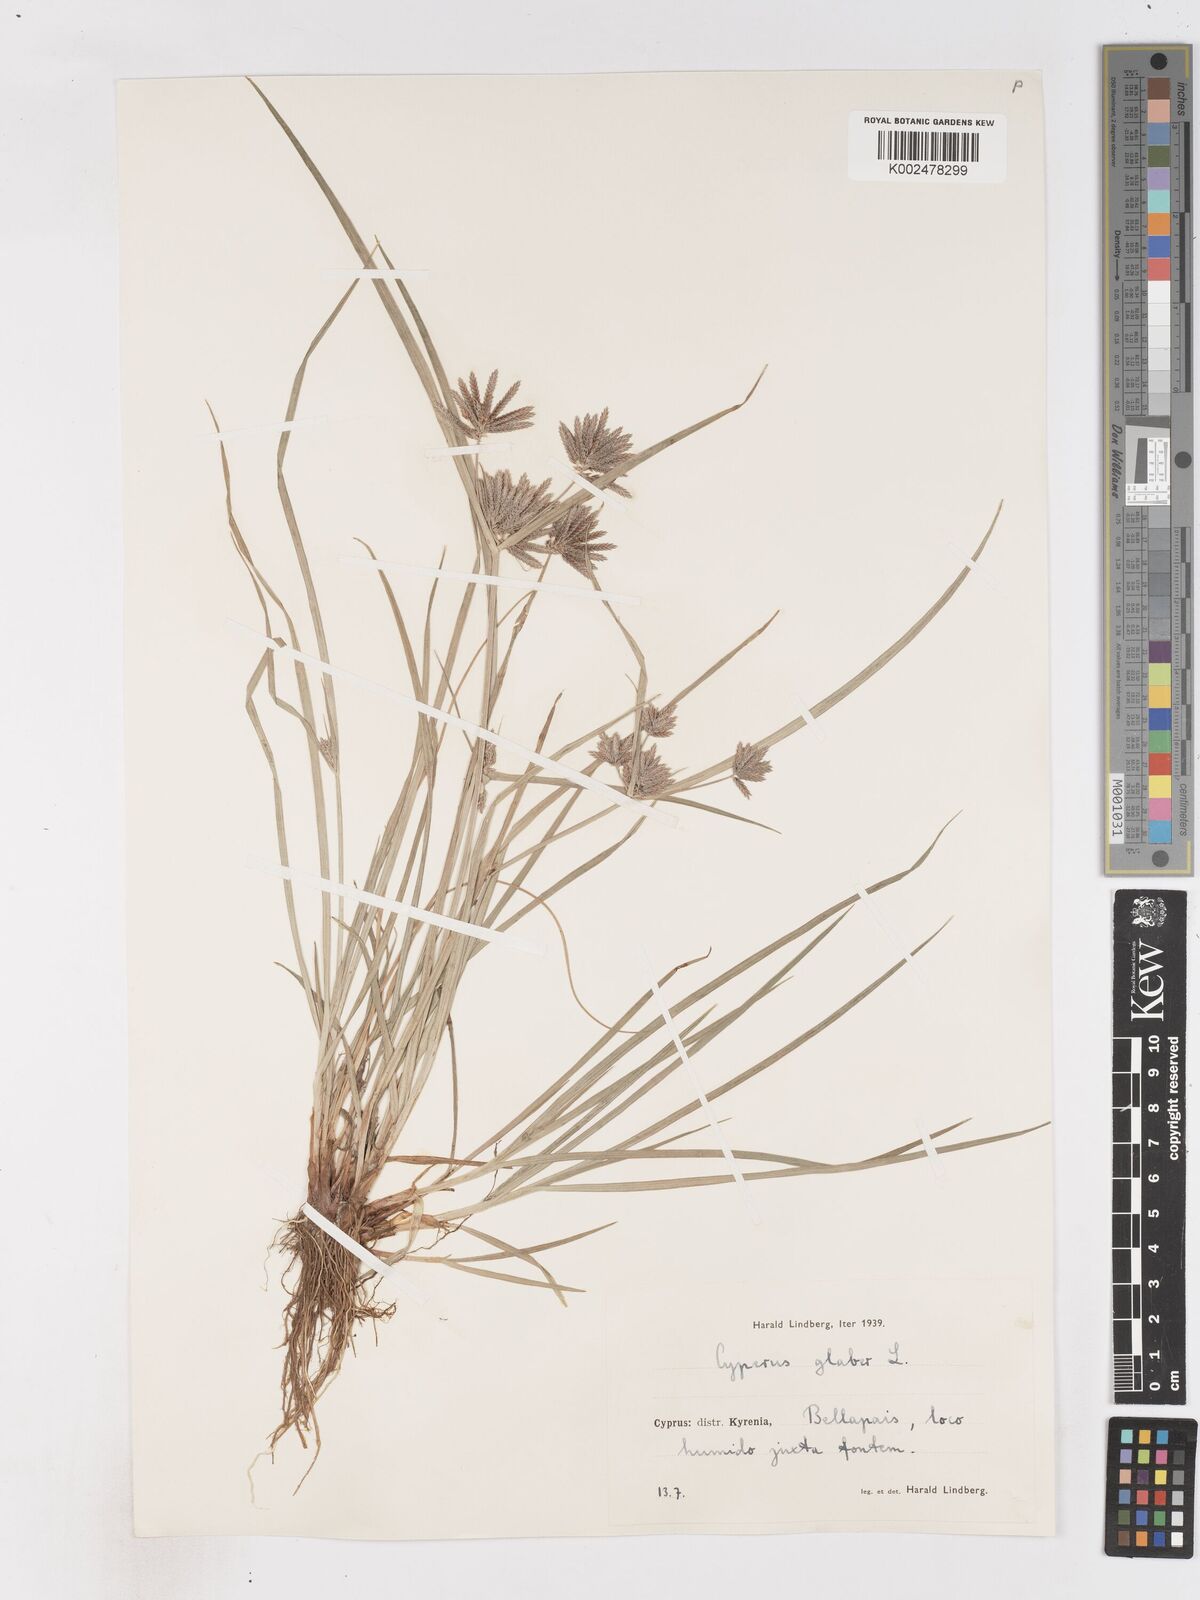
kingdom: Plantae
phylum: Tracheophyta
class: Liliopsida
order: Poales
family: Cyperaceae
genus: Cyperus
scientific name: Cyperus glaber
